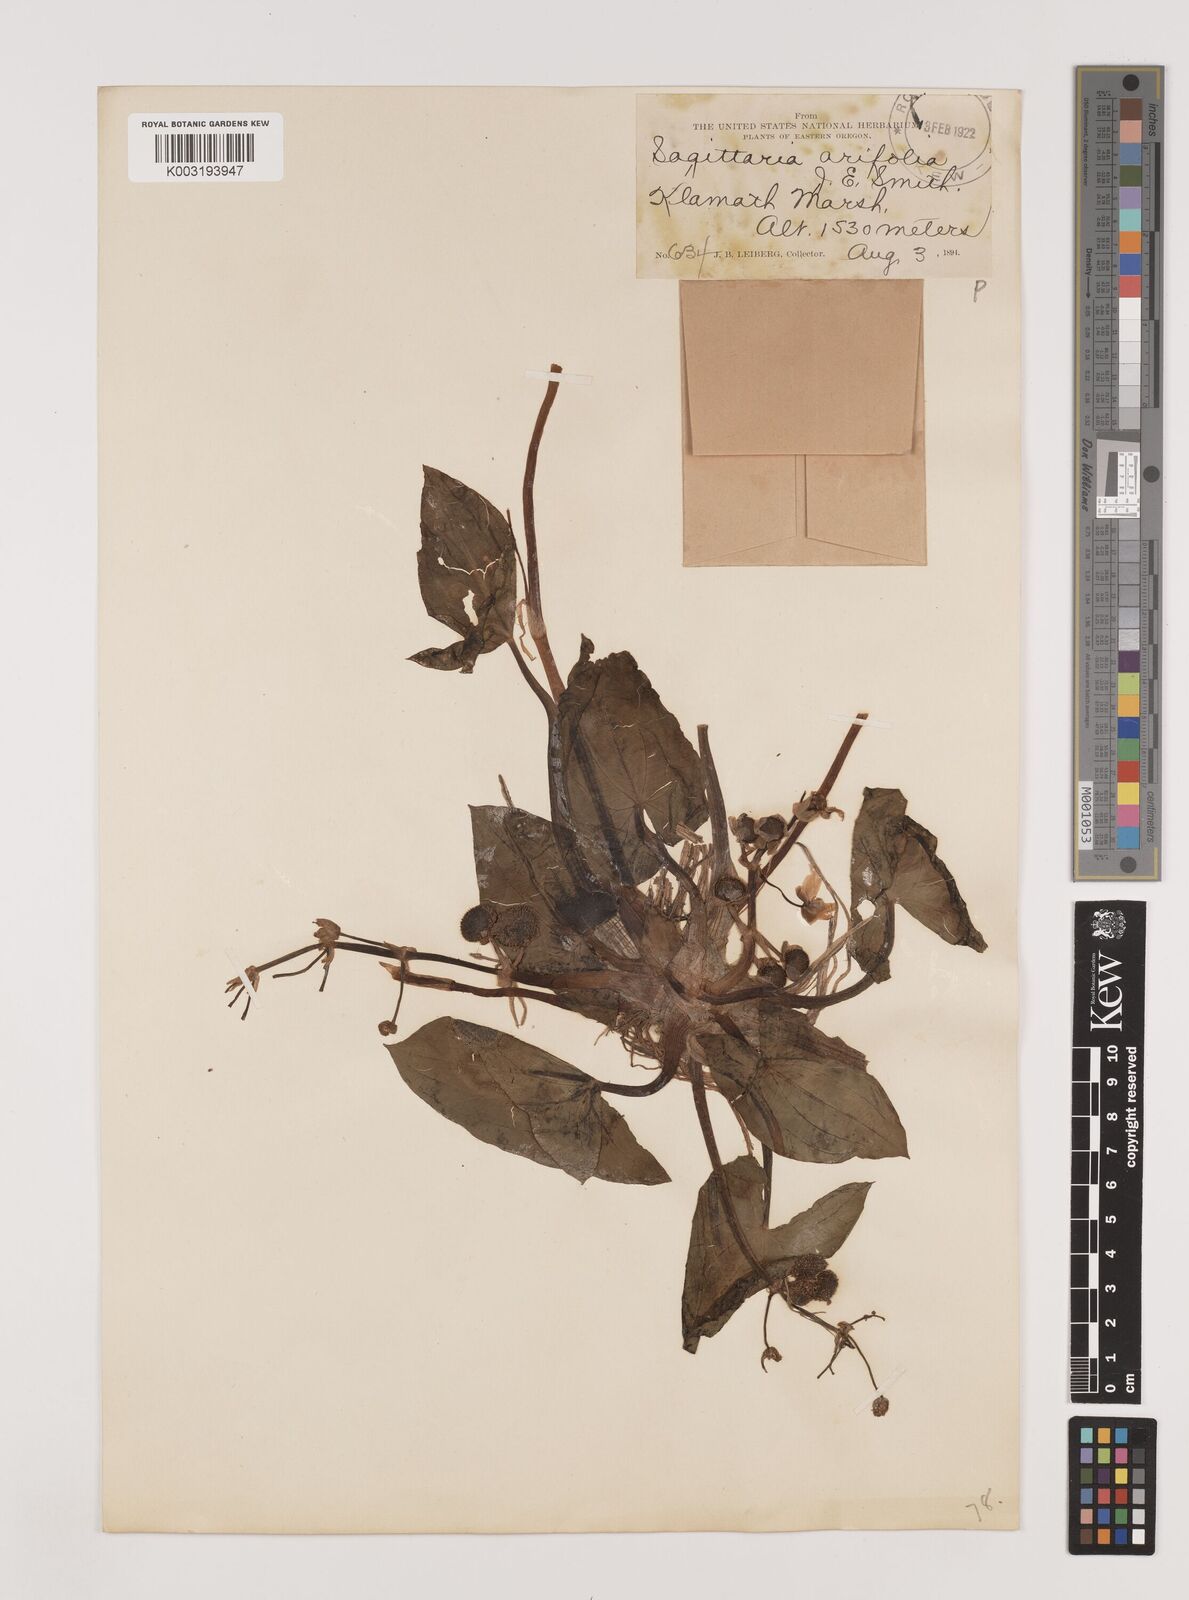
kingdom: Plantae
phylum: Tracheophyta
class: Liliopsida
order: Alismatales
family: Alismataceae
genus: Sagittaria
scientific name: Sagittaria cuneata
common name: Northern arrowhead
